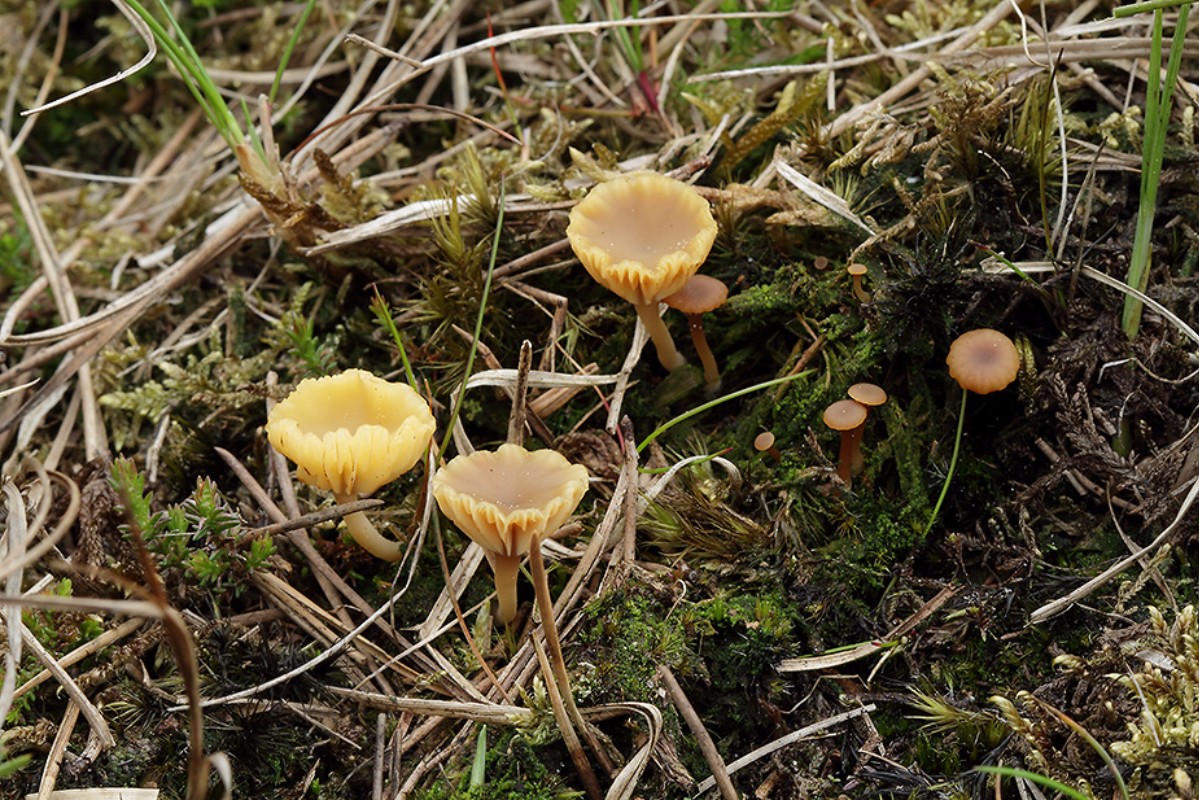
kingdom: Fungi
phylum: Basidiomycota
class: Agaricomycetes
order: Agaricales
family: Hygrophoraceae
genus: Lichenomphalia
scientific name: Lichenomphalia umbellifera
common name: tørve-lavhat
